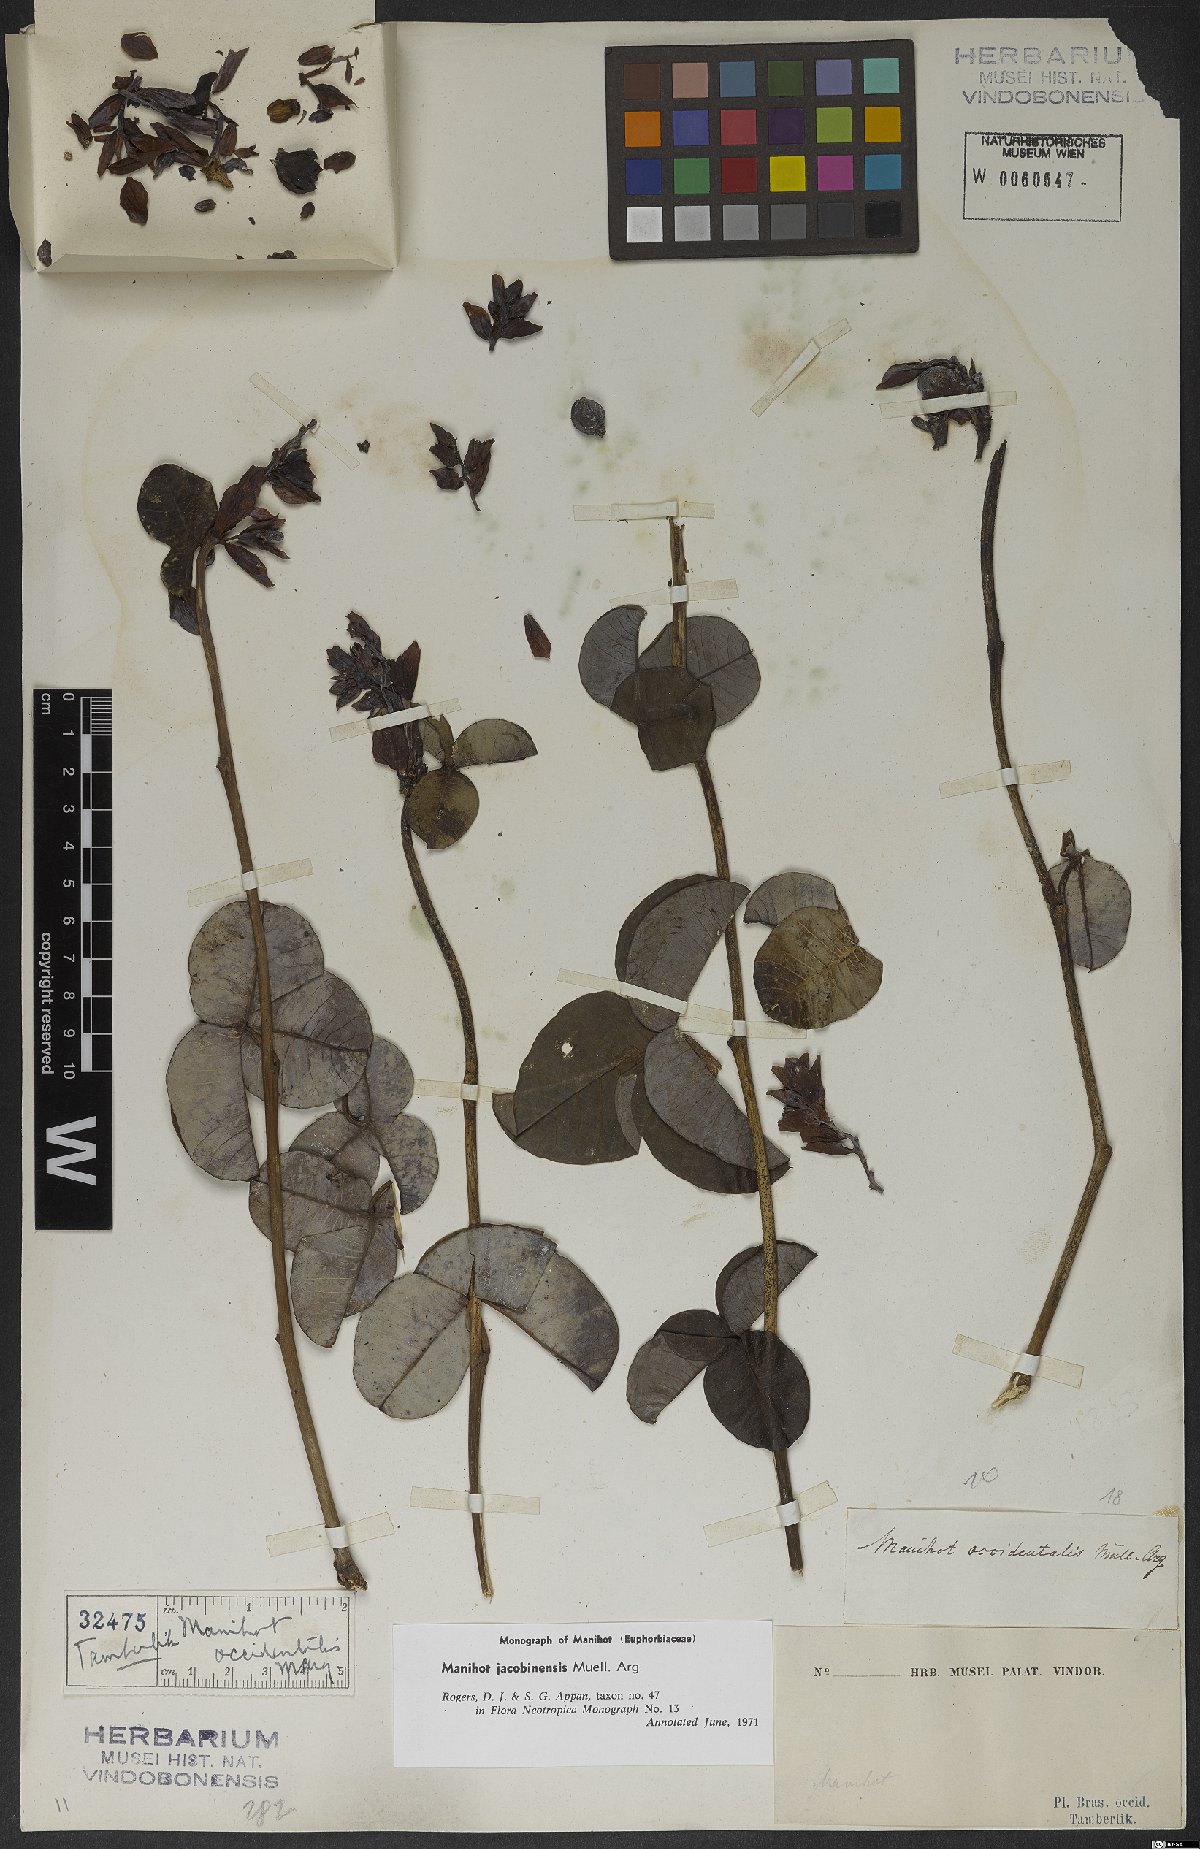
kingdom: Plantae
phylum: Tracheophyta
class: Magnoliopsida
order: Malpighiales
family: Euphorbiaceae
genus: Manihot
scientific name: Manihot jacobinensis
